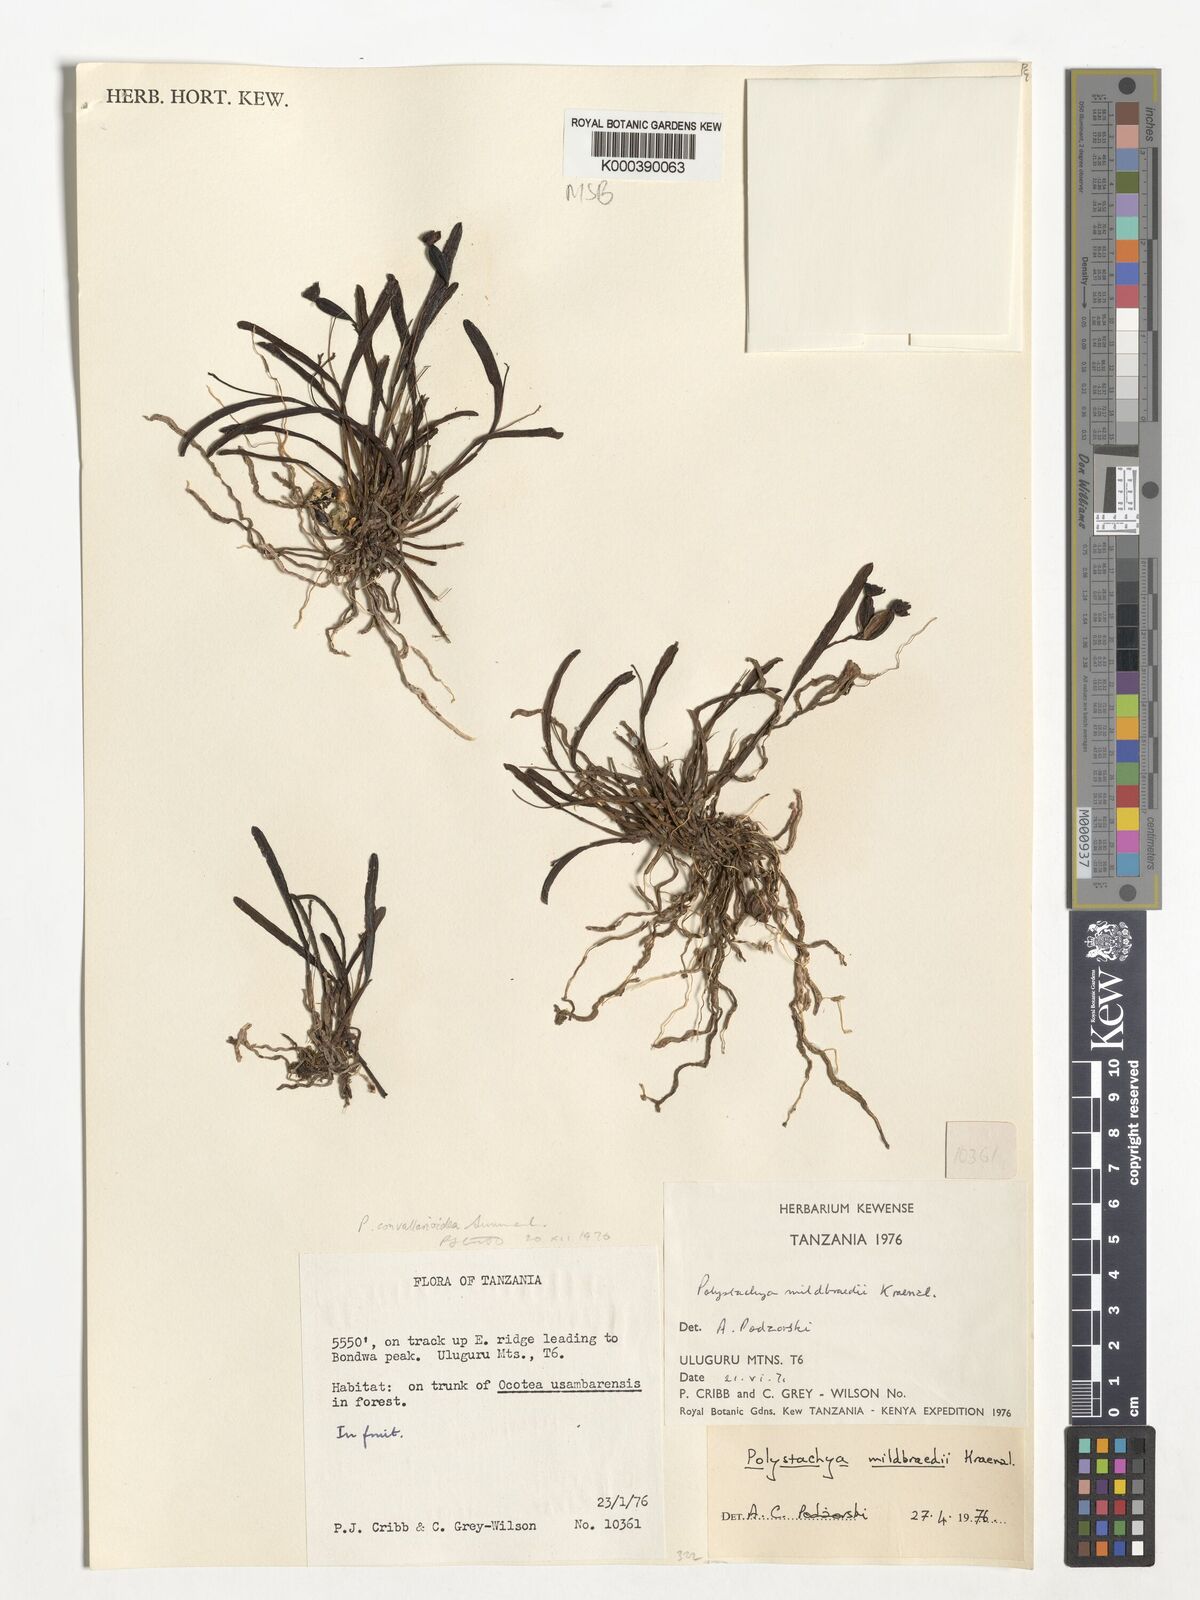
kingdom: Plantae
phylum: Tracheophyta
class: Liliopsida
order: Asparagales
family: Orchidaceae
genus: Polystachya
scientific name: Polystachya caespitifica
